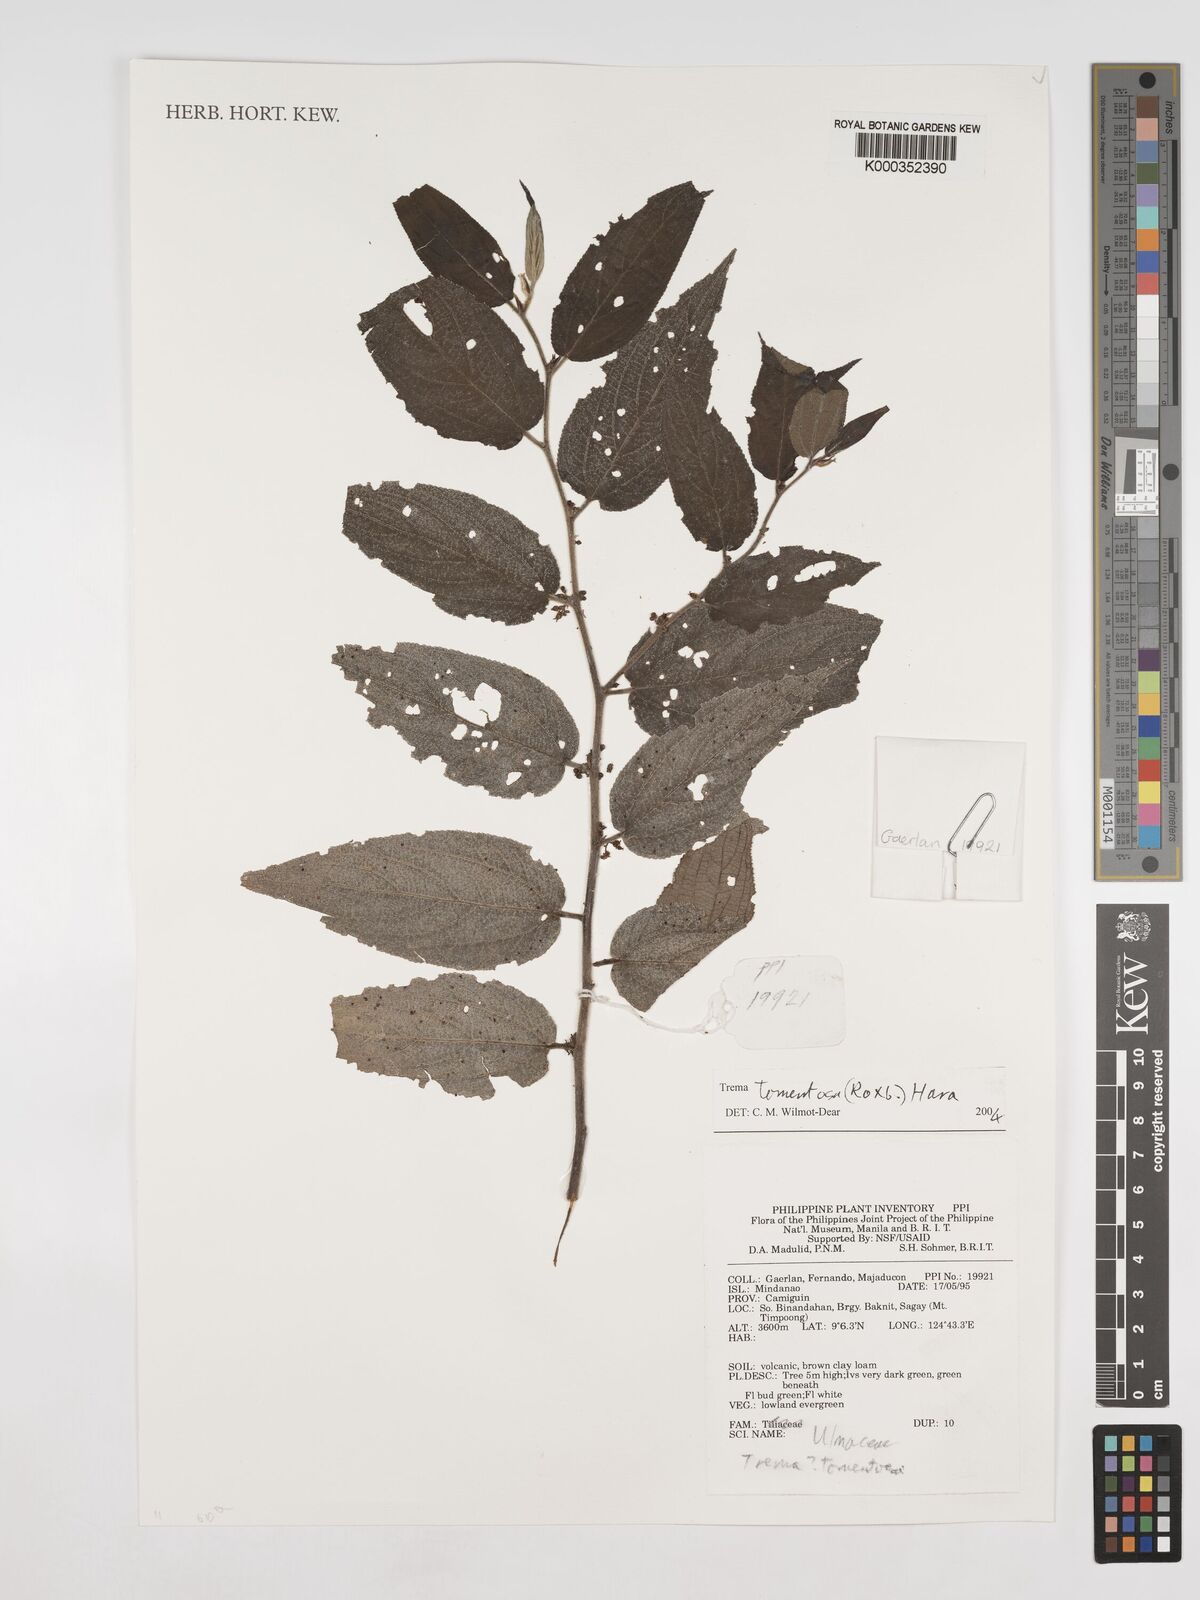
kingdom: Plantae
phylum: Tracheophyta
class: Magnoliopsida
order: Rosales
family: Cannabaceae
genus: Trema
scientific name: Trema tomentosum
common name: Peach-leaf-poisonbush
